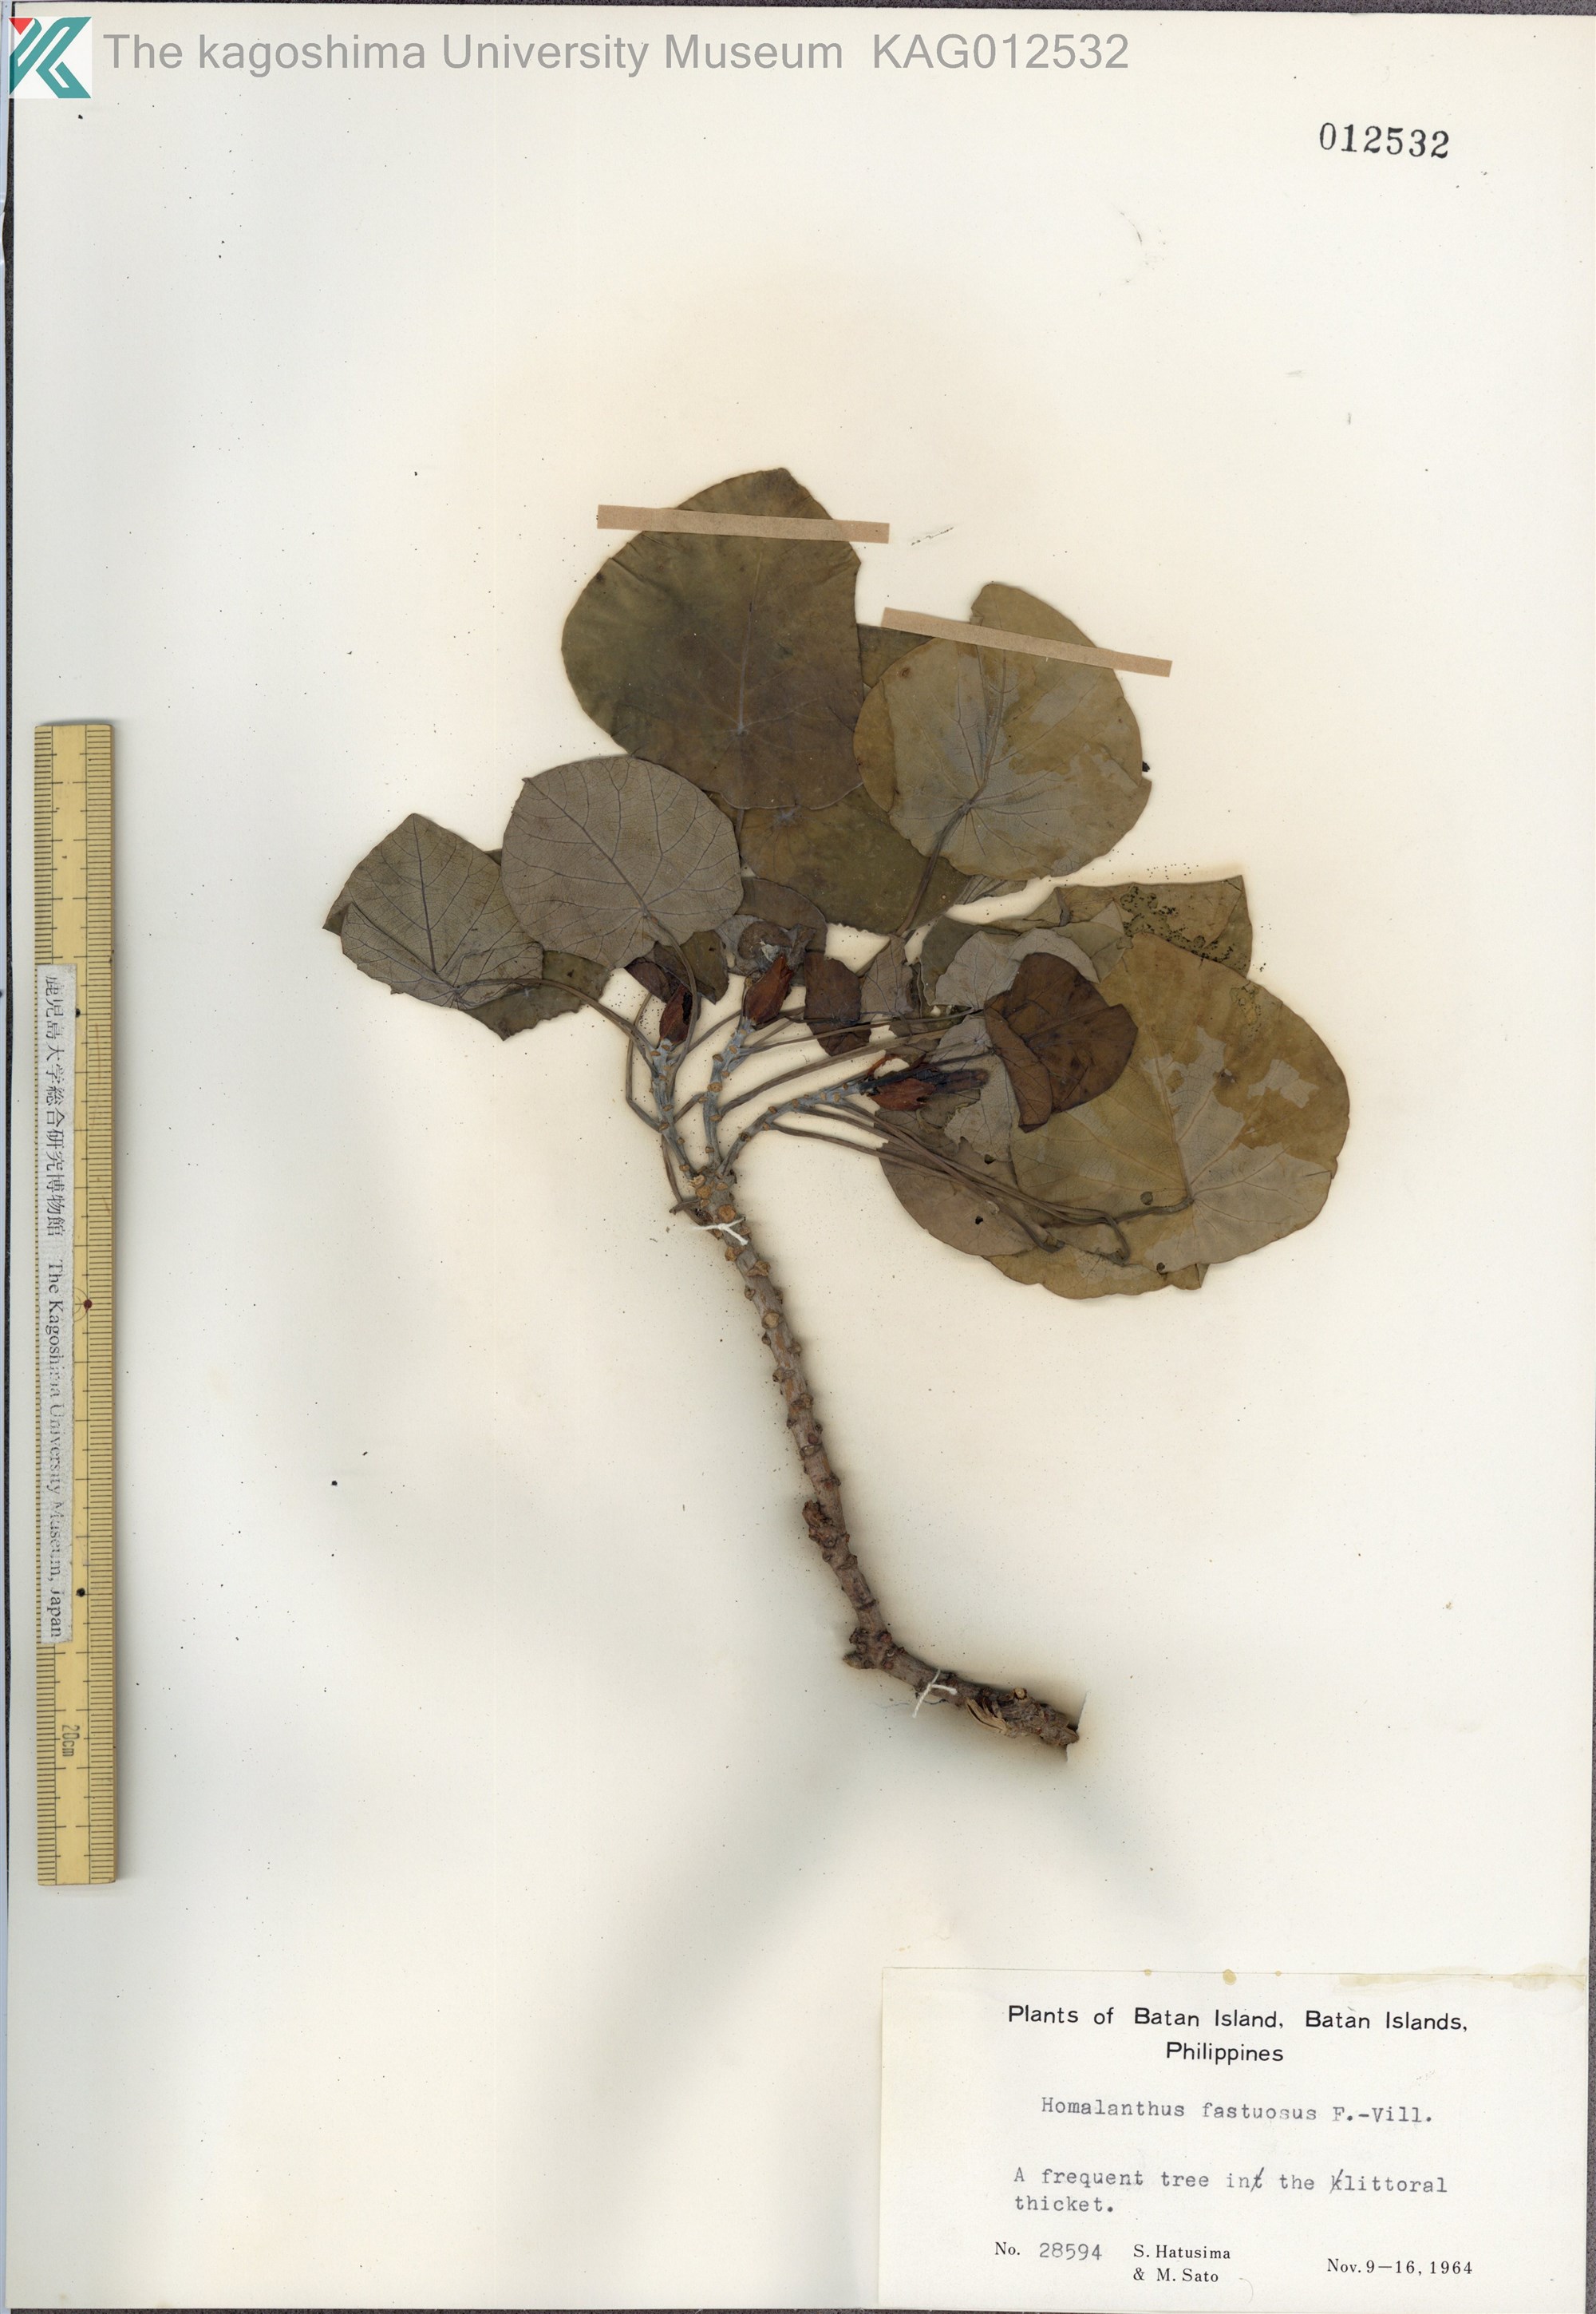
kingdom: Plantae
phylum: Tracheophyta
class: Magnoliopsida
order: Malpighiales
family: Euphorbiaceae
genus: Homalanthus
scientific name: Homalanthus fastuosus
